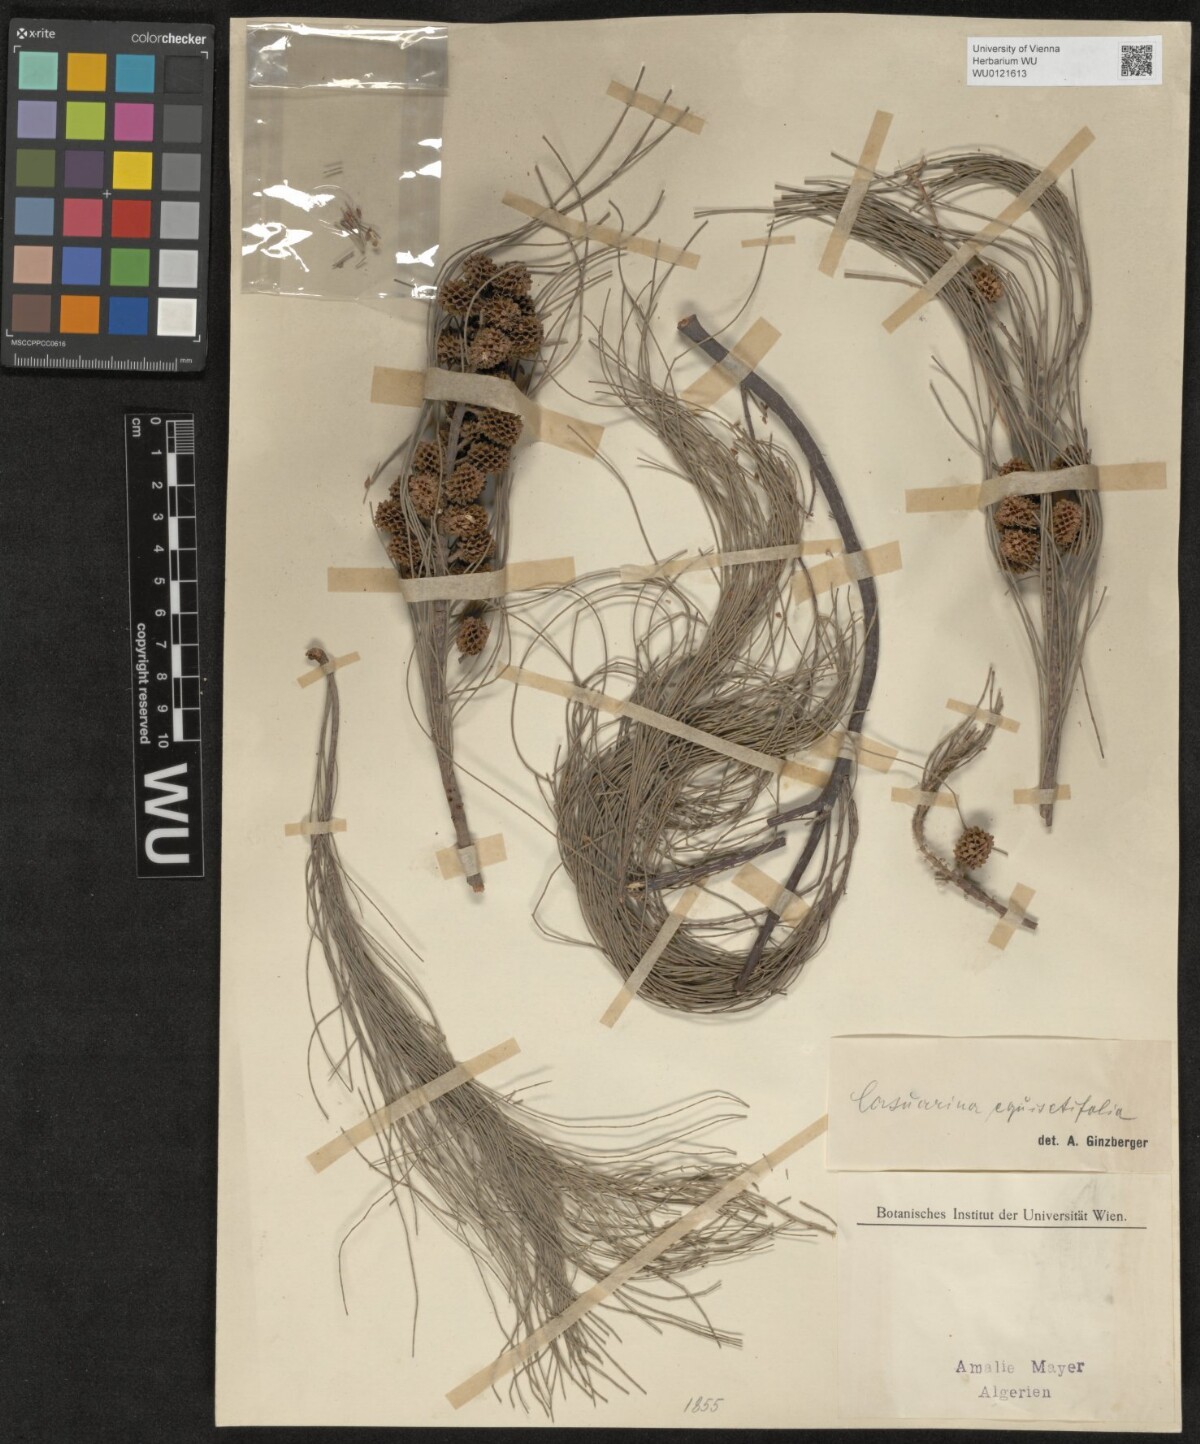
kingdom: Plantae
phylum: Tracheophyta
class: Magnoliopsida
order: Fagales
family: Casuarinaceae
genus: Casuarina
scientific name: Casuarina equisetifolia
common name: Beach sheoak
